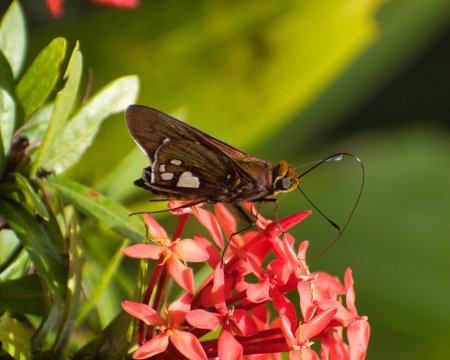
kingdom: Animalia
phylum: Arthropoda
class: Insecta
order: Lepidoptera
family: Hesperiidae
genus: Aides
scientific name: Aides aegita
